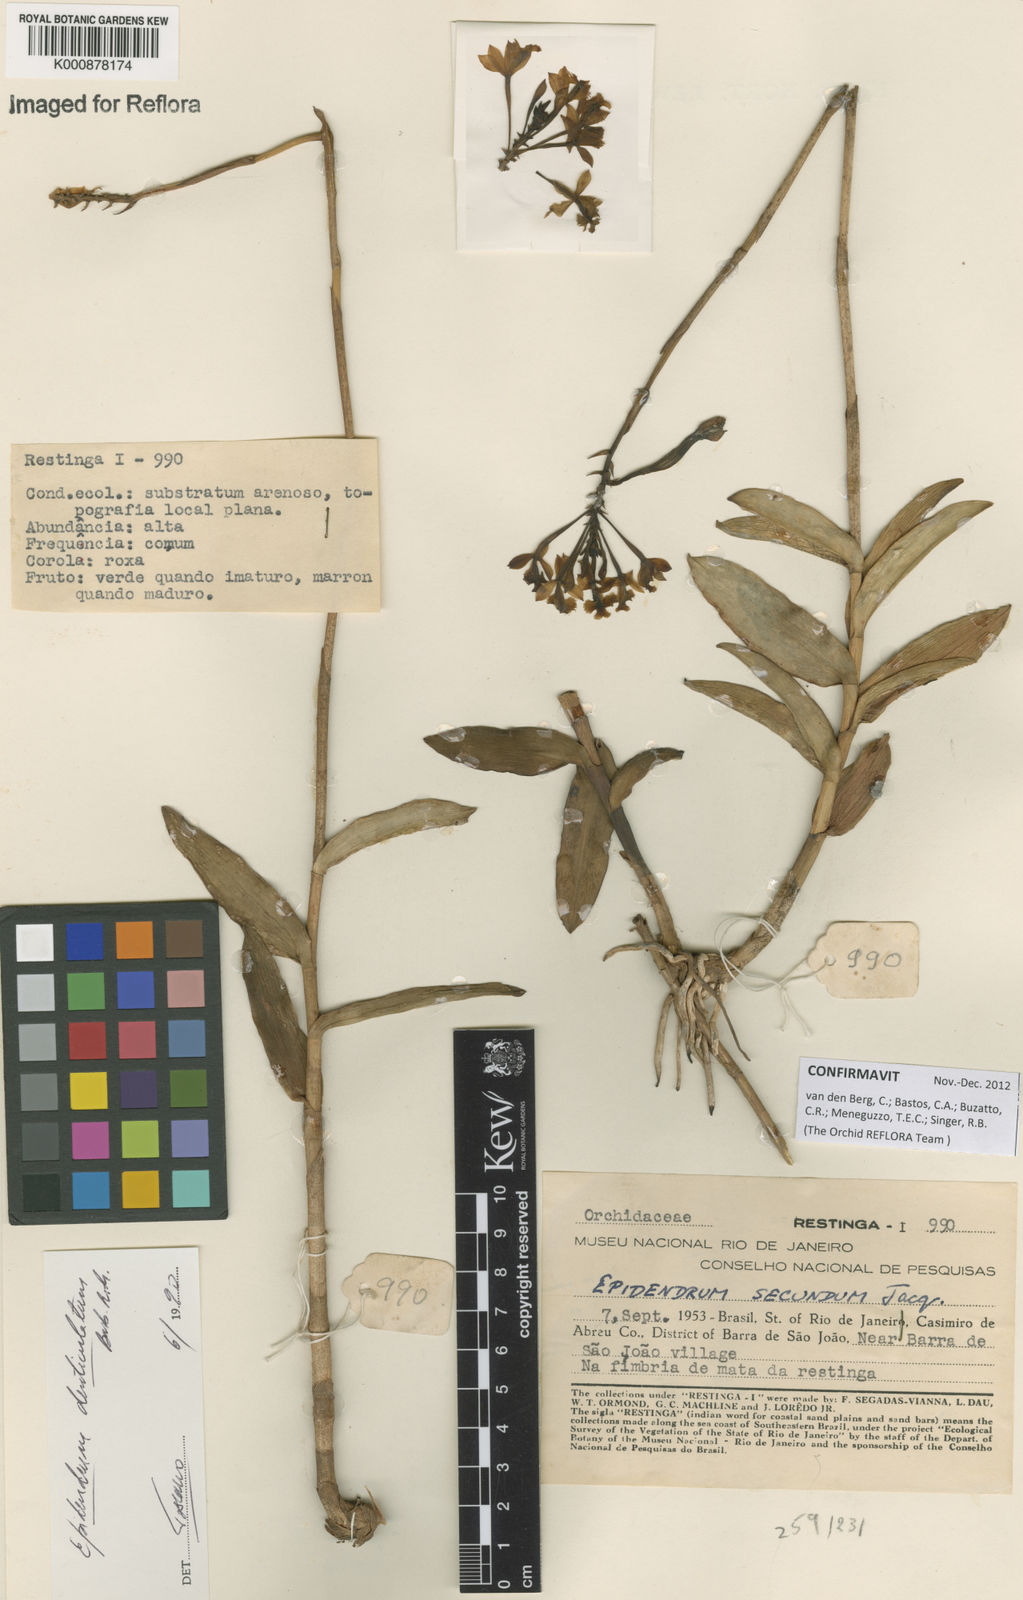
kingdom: Plantae
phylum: Tracheophyta
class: Liliopsida
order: Asparagales
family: Orchidaceae
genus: Epidendrum
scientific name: Epidendrum denticulatum
